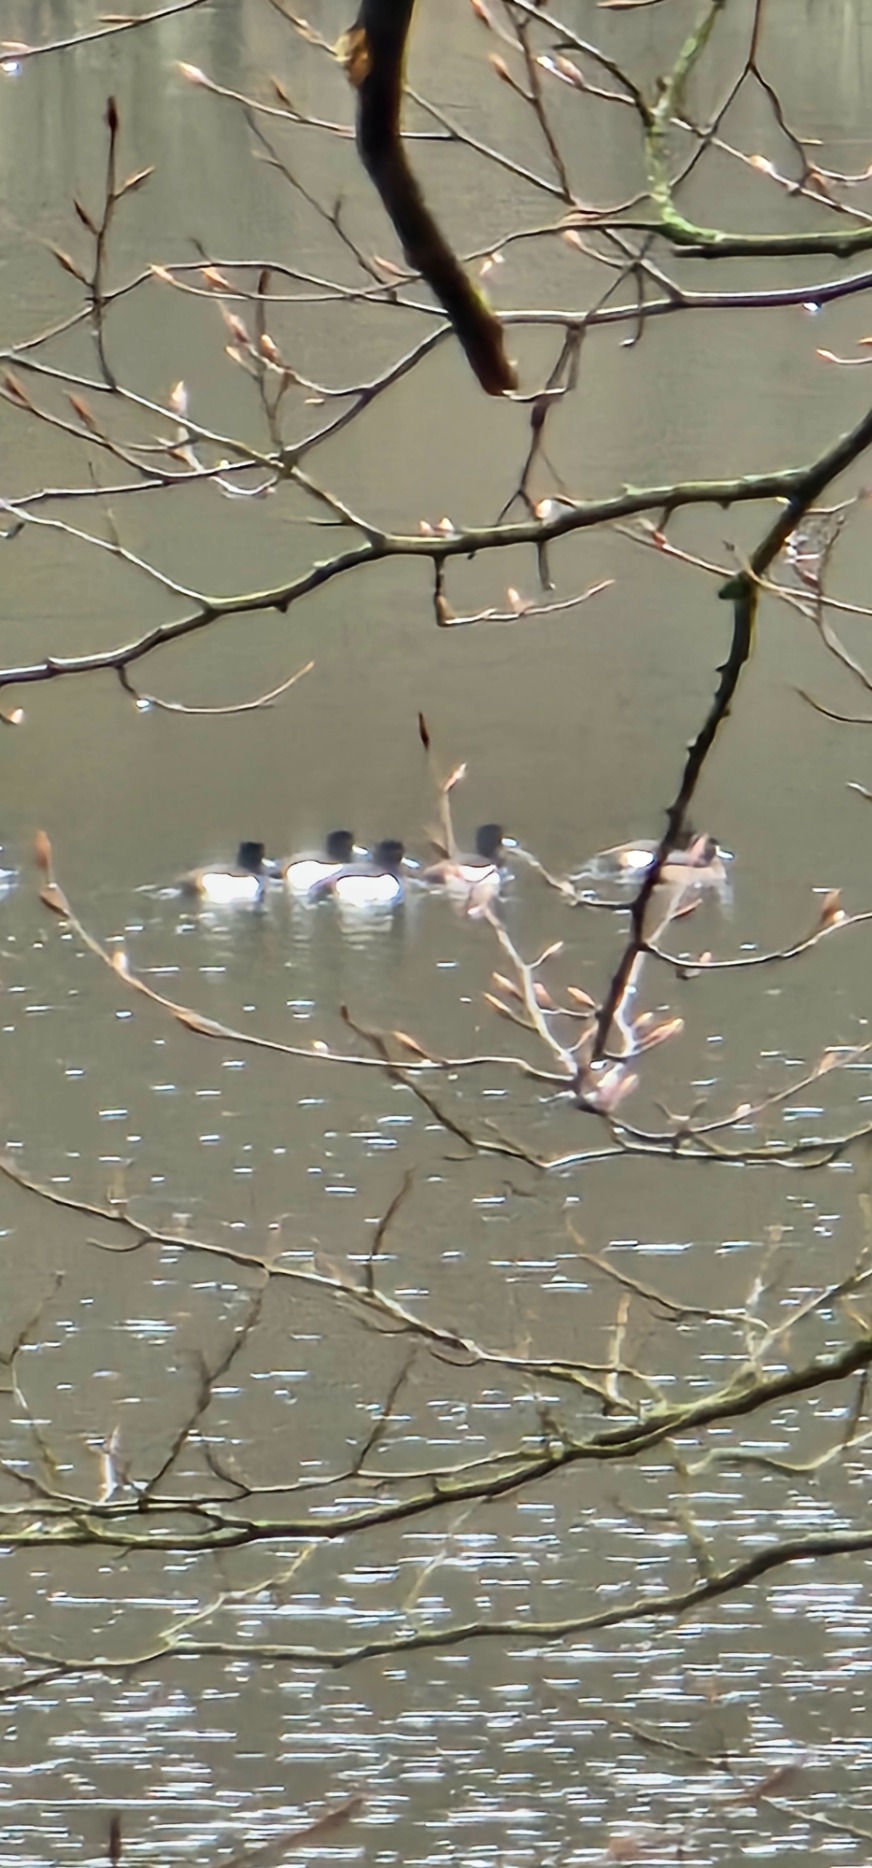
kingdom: Animalia
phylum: Chordata
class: Aves
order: Anseriformes
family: Anatidae
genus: Aythya
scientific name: Aythya fuligula
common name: Troldand
